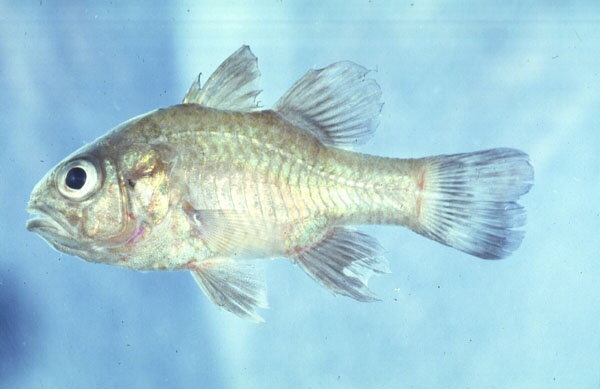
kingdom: Animalia
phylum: Chordata
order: Perciformes
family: Apogonidae
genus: Ostorhinchus
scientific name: Ostorhinchus pallidofasciatus
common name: Palestriped cardinalfish
